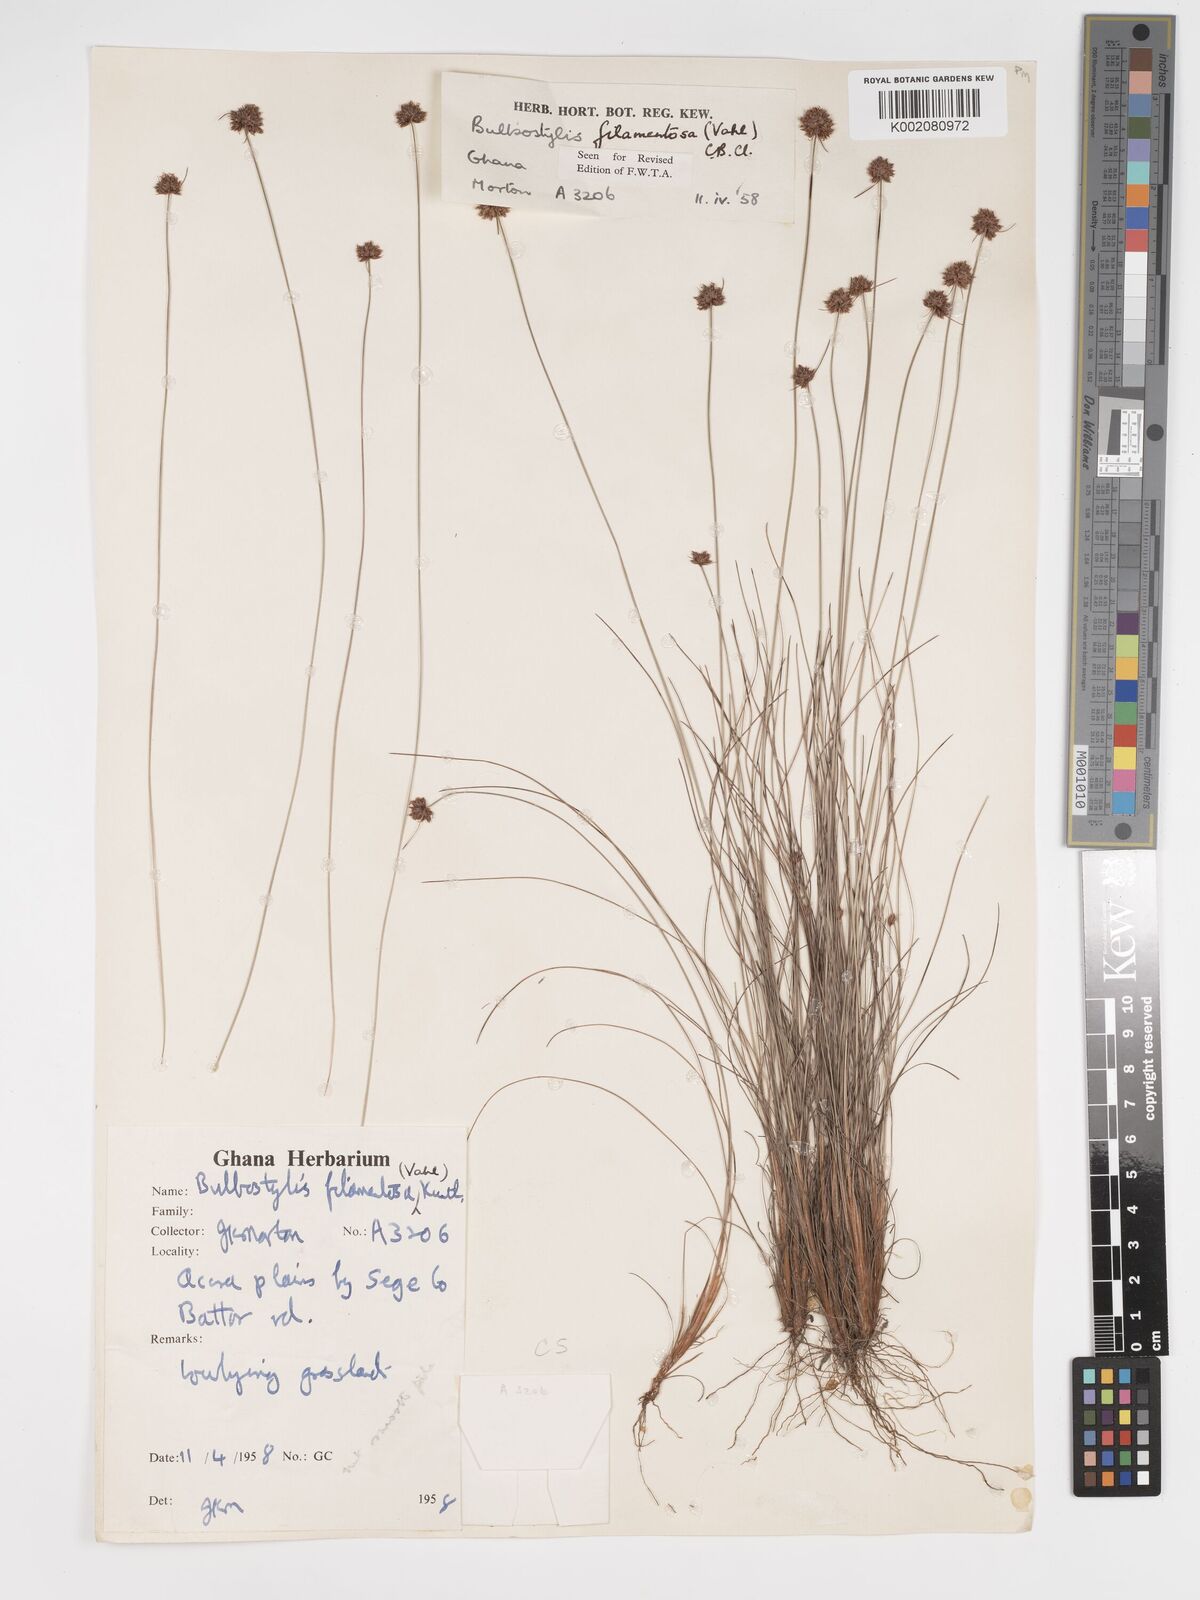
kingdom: Plantae
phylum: Tracheophyta
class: Liliopsida
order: Poales
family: Cyperaceae
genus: Bulbostylis
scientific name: Bulbostylis filamentosa
